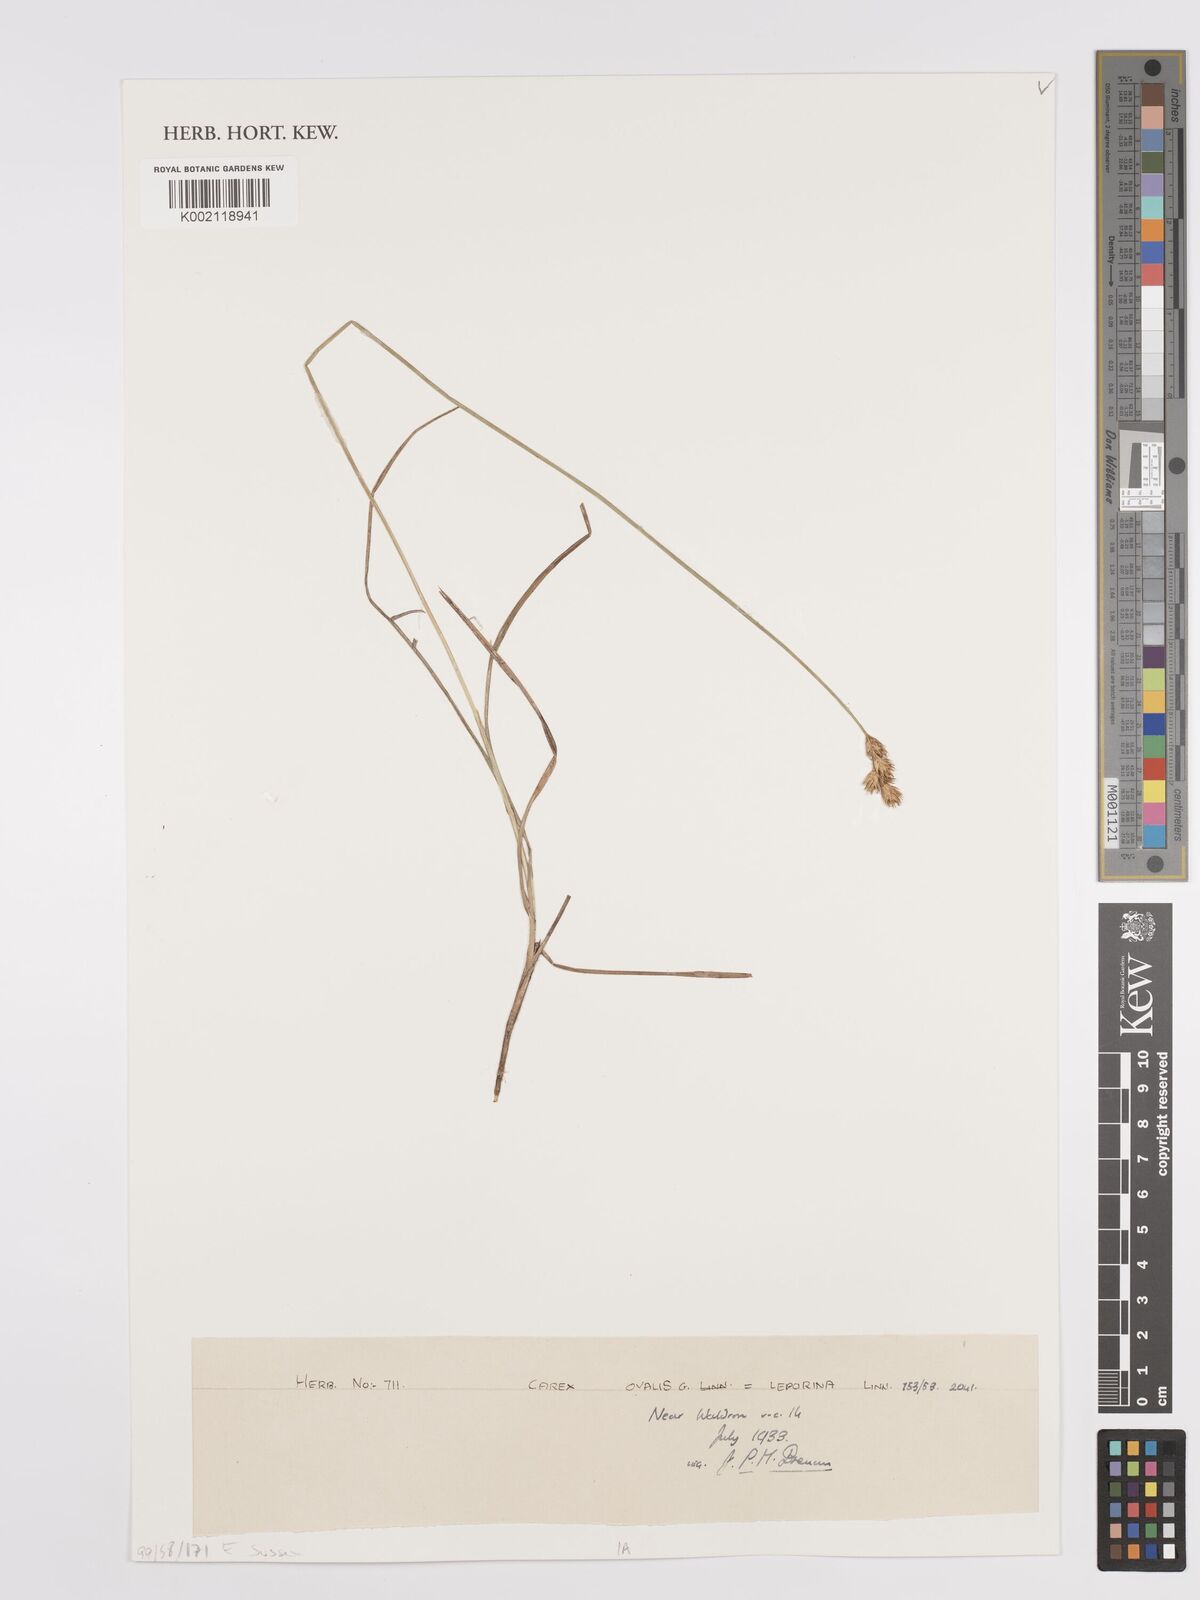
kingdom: Plantae
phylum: Tracheophyta
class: Liliopsida
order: Poales
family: Cyperaceae
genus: Carex
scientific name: Carex leporina
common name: Oval sedge
